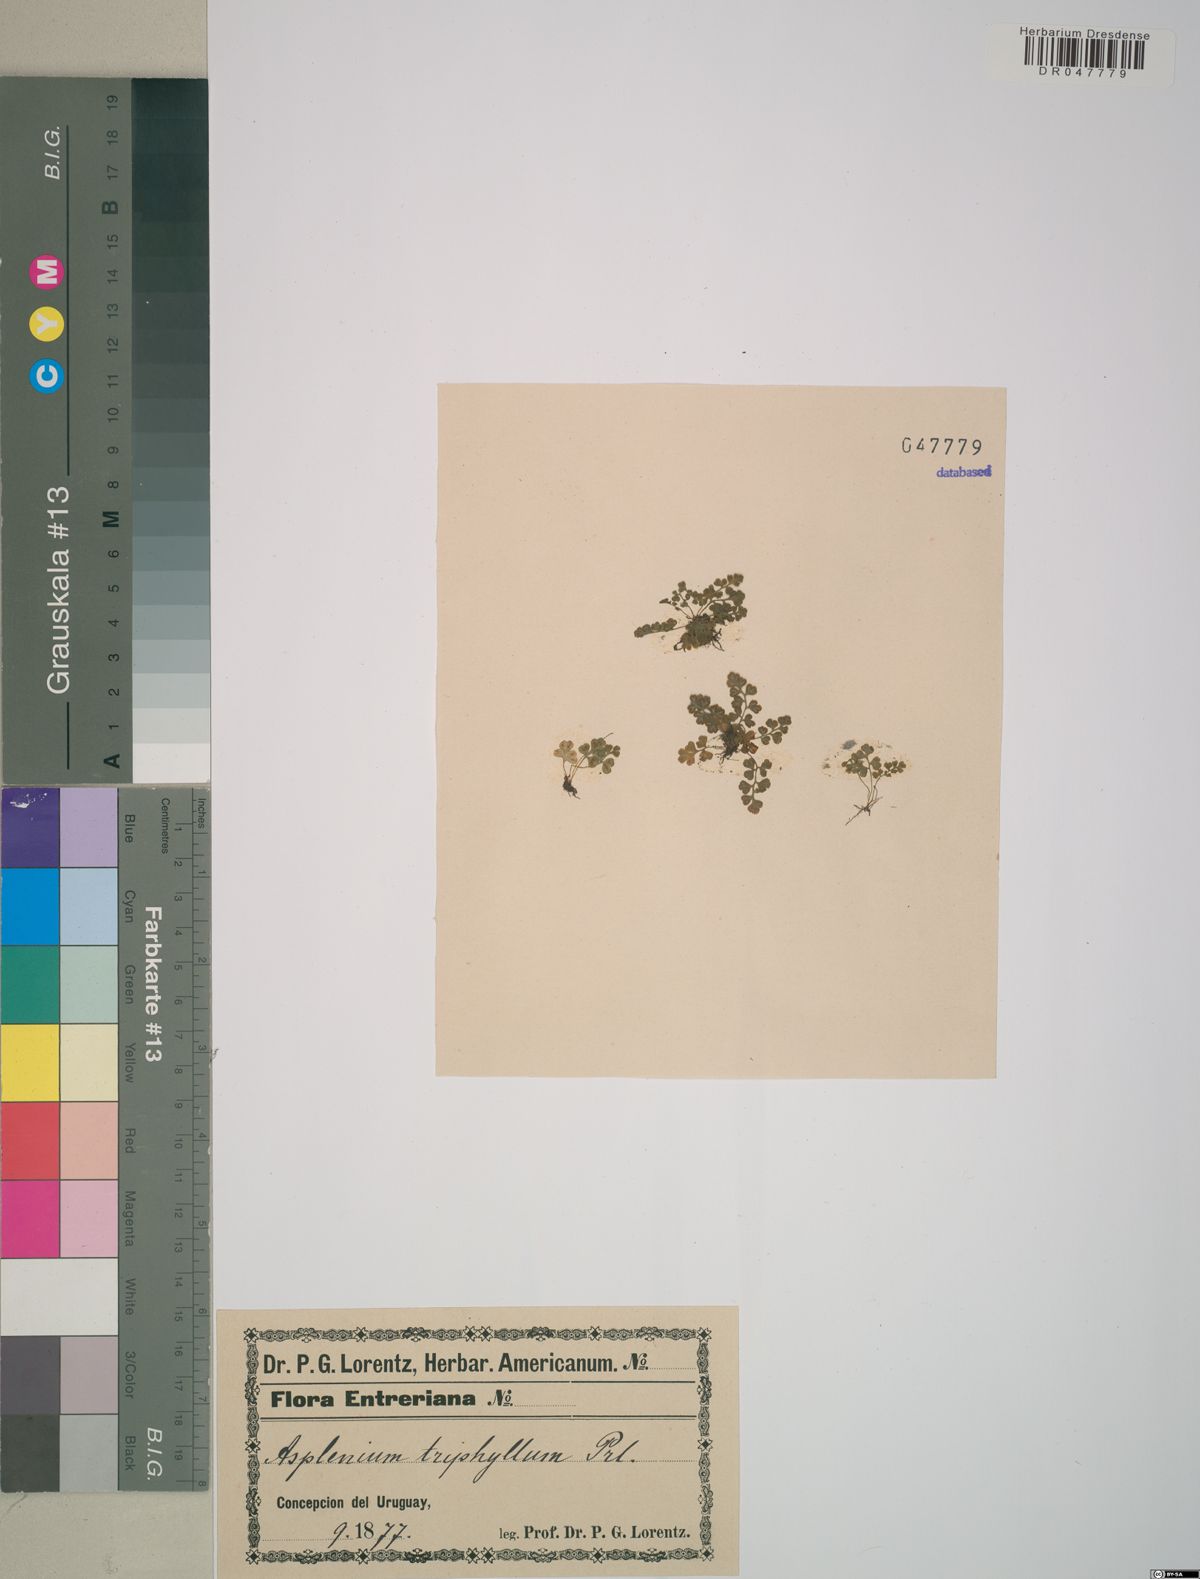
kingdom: Plantae
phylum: Tracheophyta
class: Polypodiopsida
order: Polypodiales
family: Pteridaceae
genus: Anogramma
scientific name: Anogramma lorentzii
